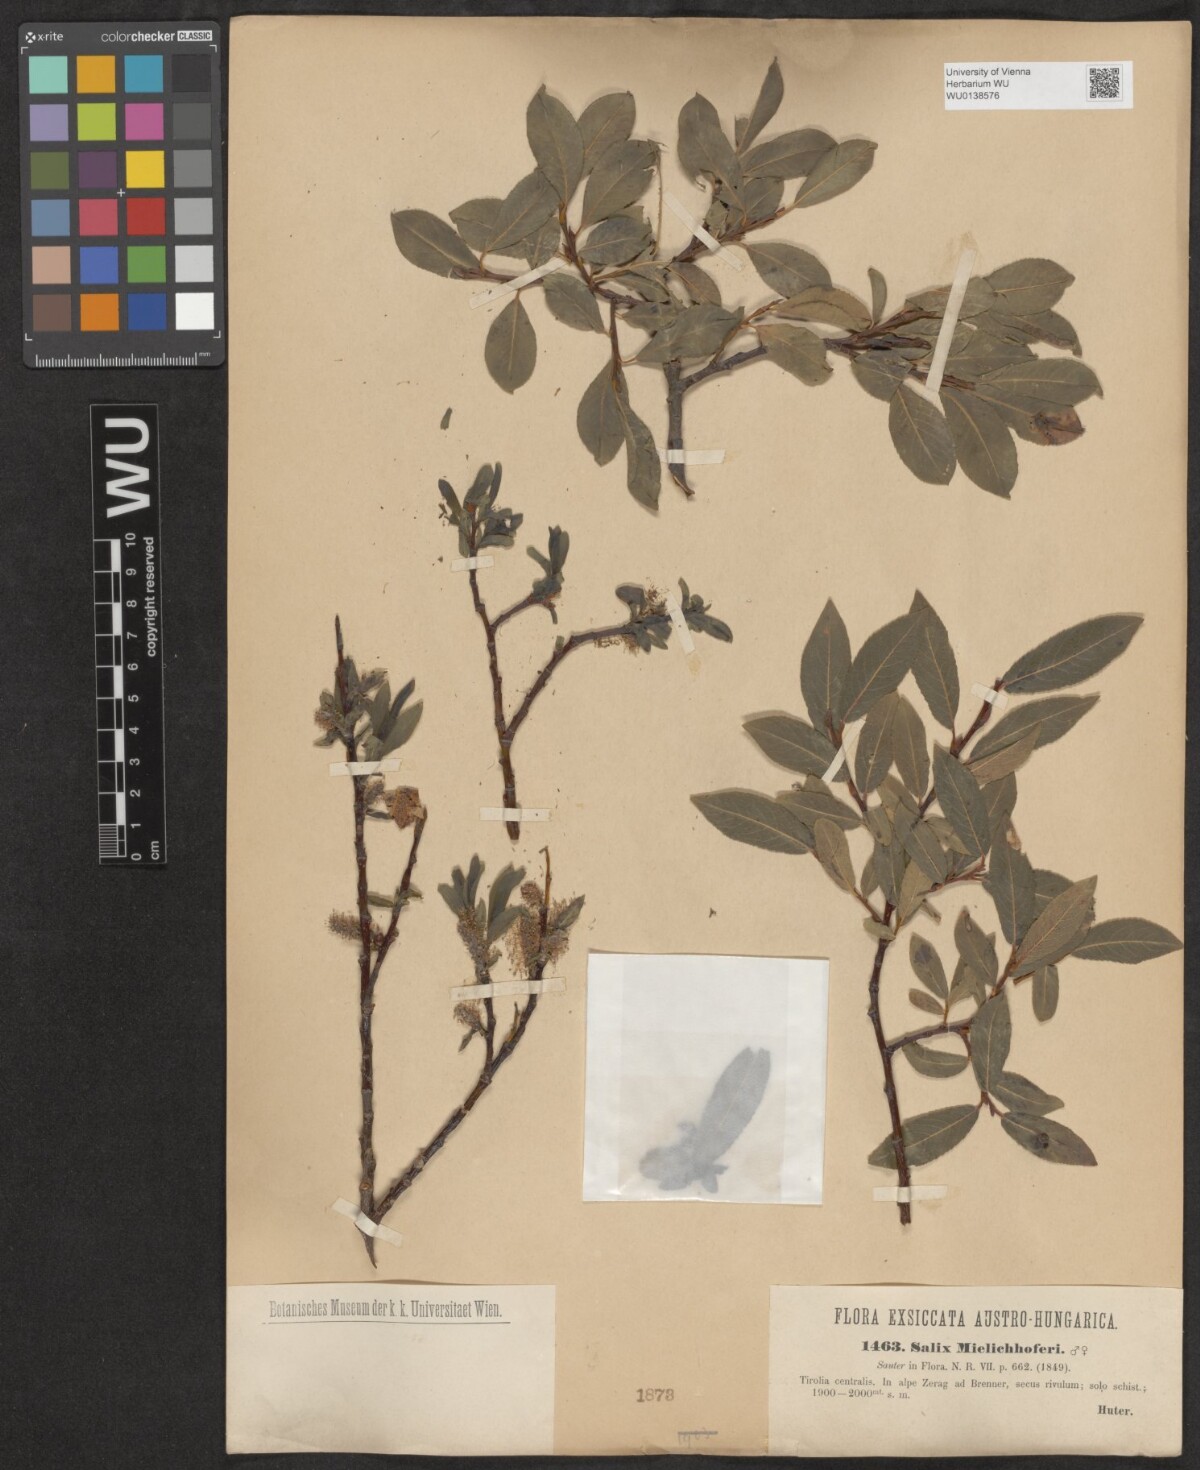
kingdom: Plantae
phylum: Tracheophyta
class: Magnoliopsida
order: Malpighiales
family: Salicaceae
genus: Salix
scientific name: Salix mielichhoferi
